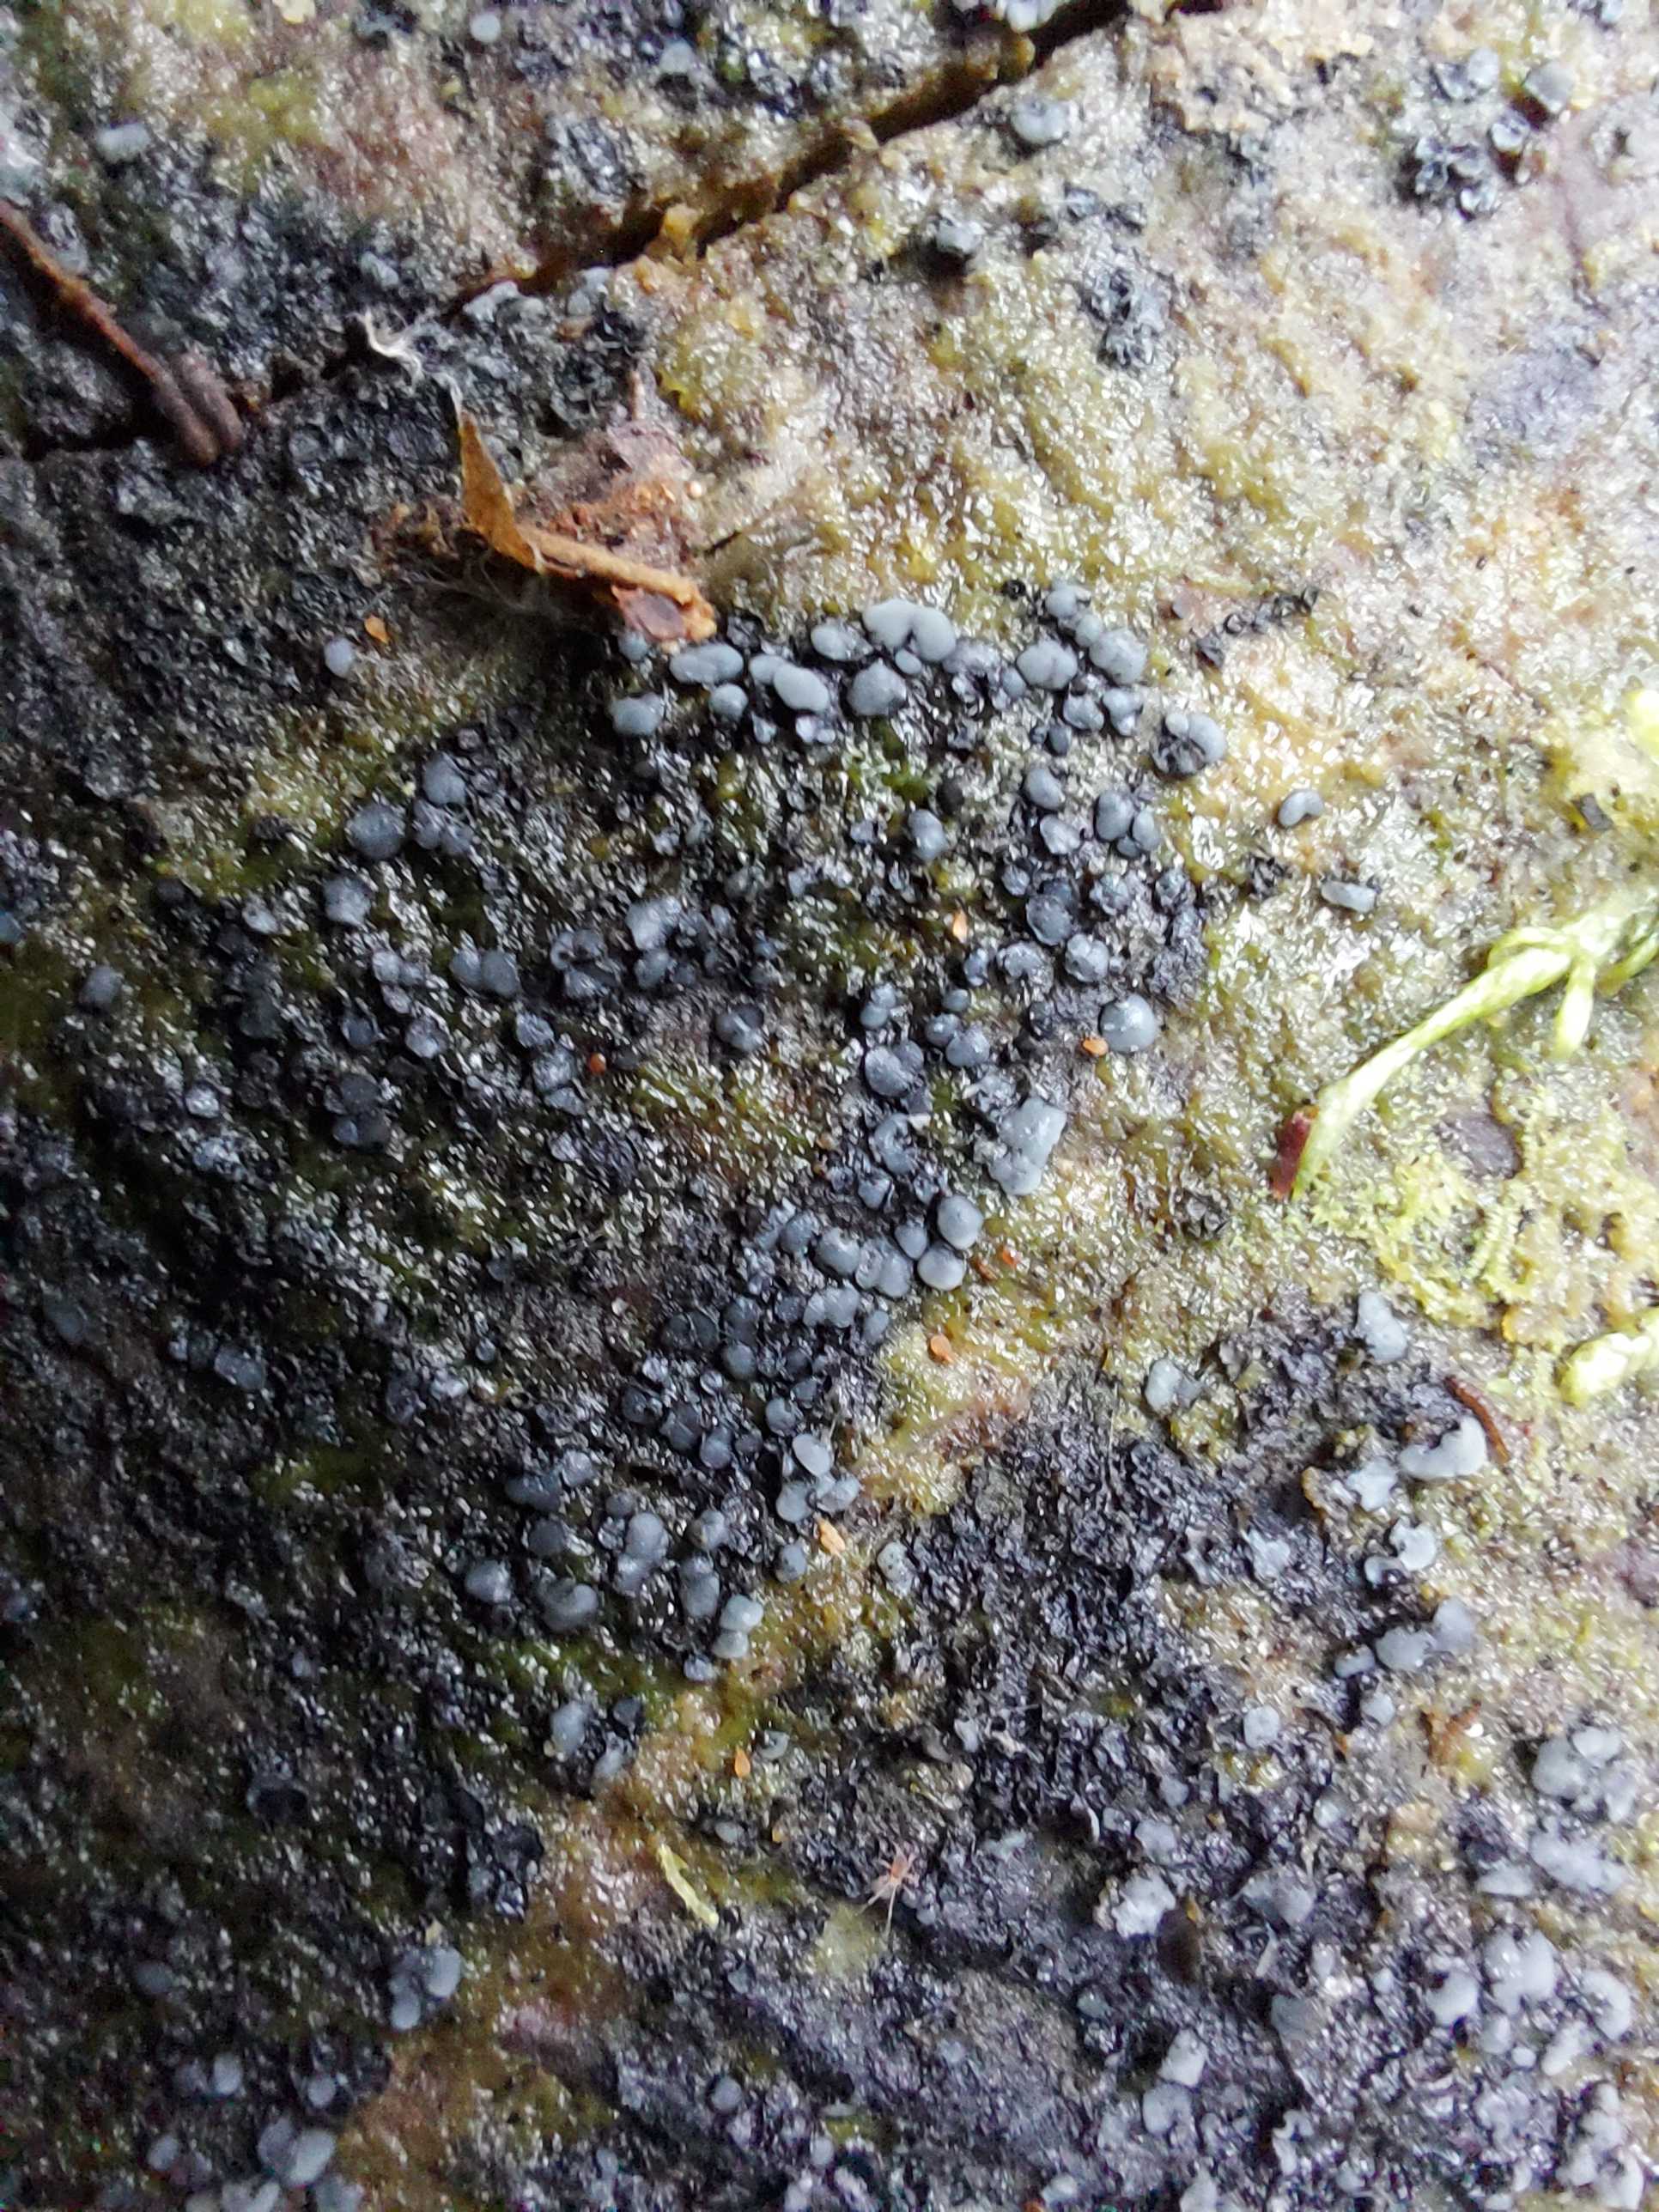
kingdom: Fungi
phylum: Ascomycota
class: Leotiomycetes
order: Helotiales
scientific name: Helotiales
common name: stilkskiveordenen
